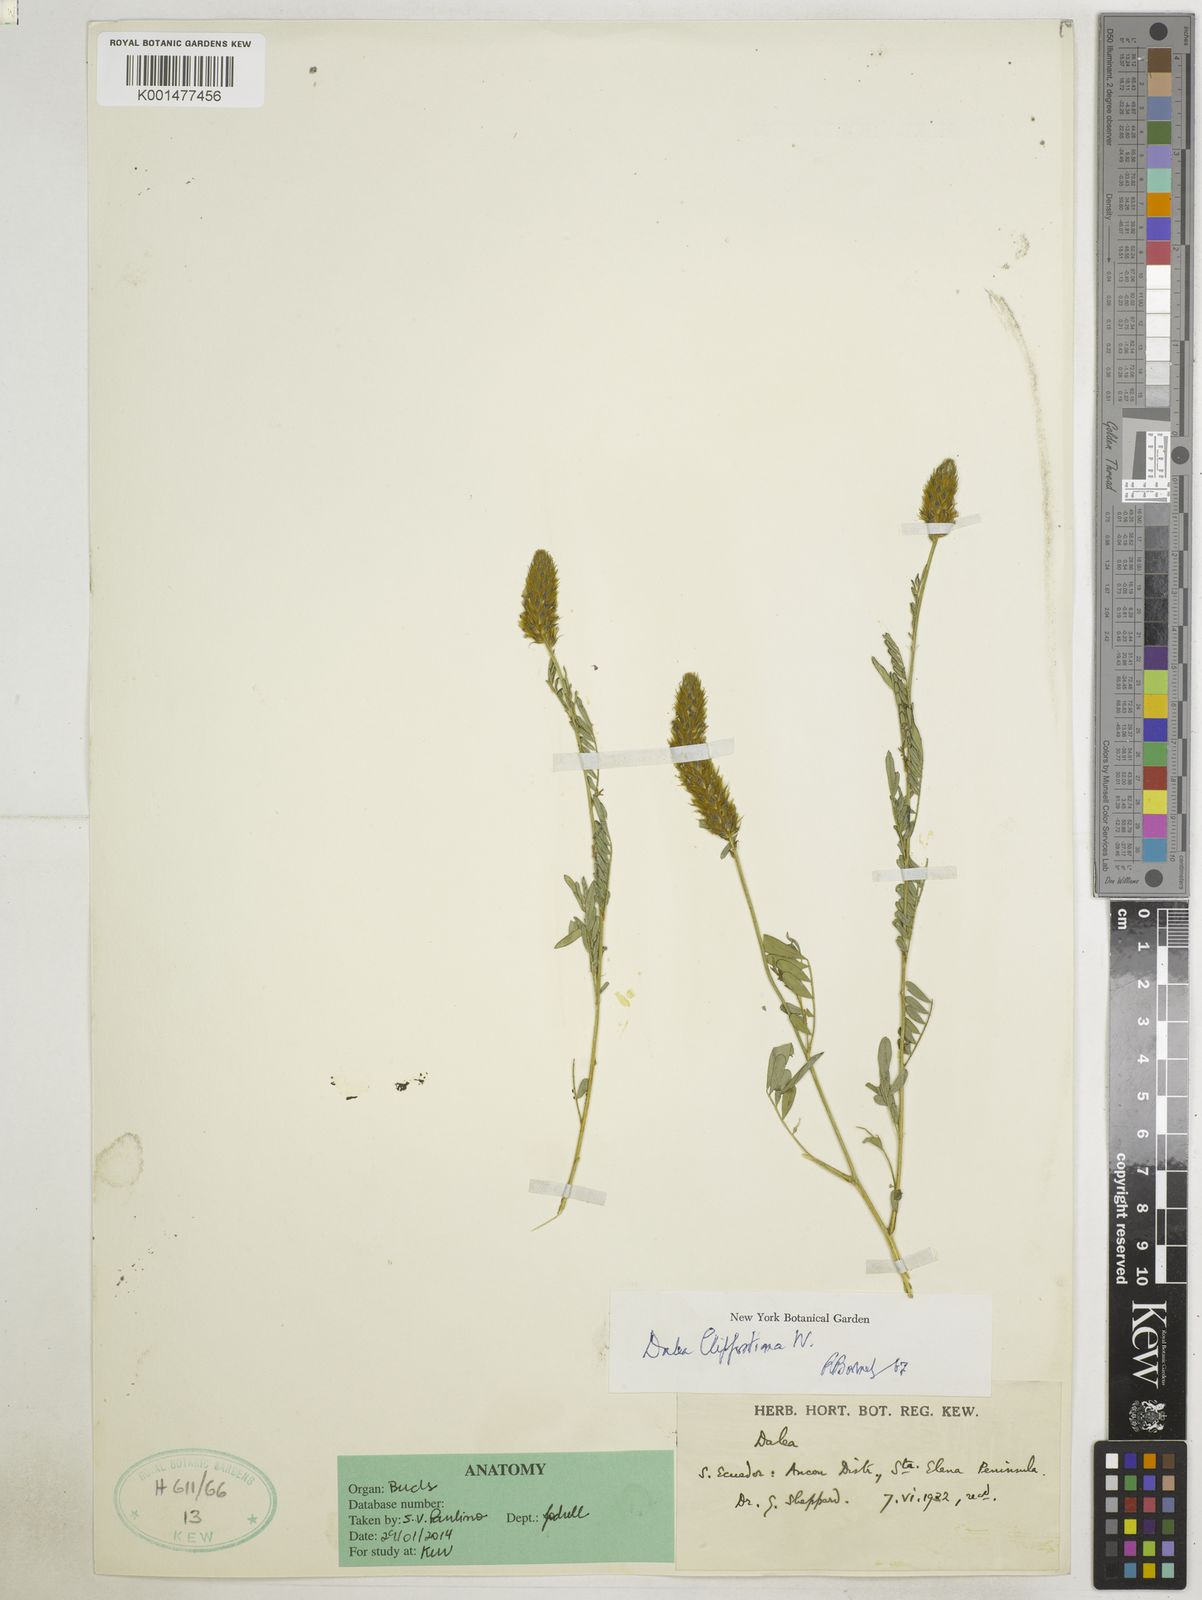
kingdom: Plantae
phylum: Tracheophyta
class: Magnoliopsida
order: Fabales
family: Fabaceae
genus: Dalea
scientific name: Dalea cliffortiana
